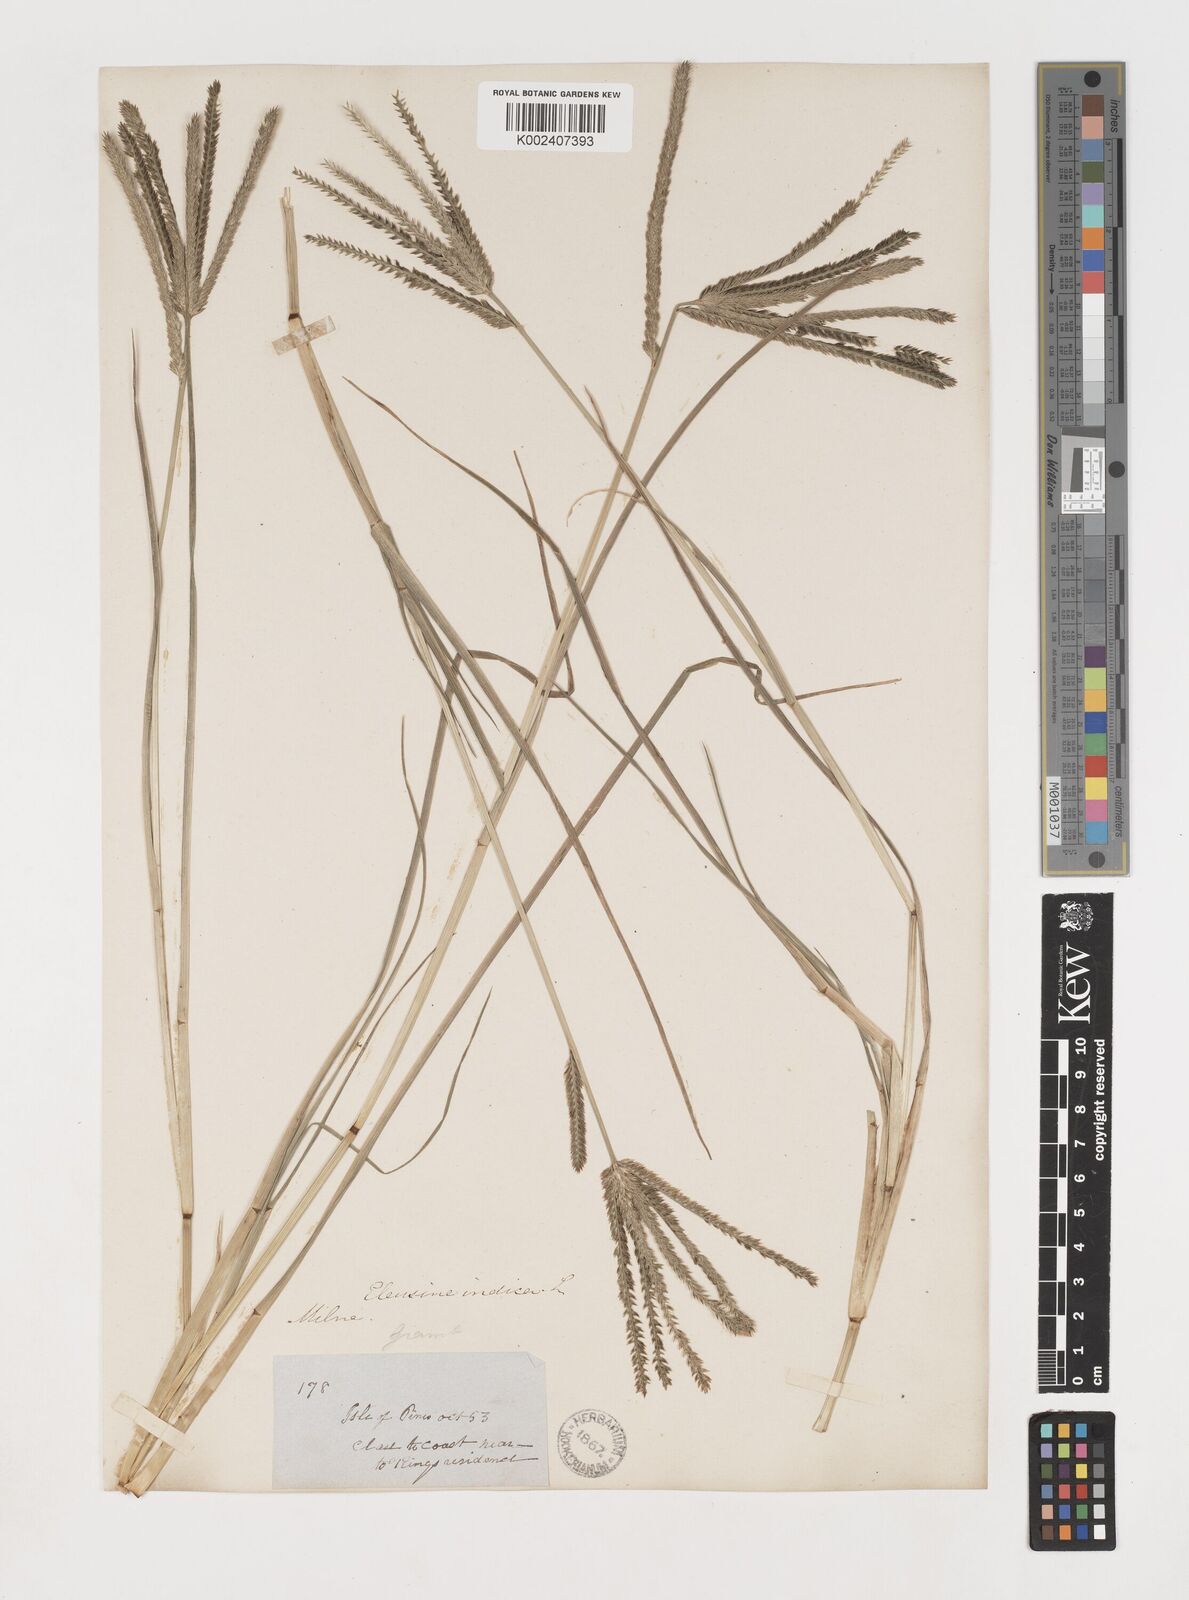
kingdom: Plantae
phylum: Tracheophyta
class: Liliopsida
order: Poales
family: Poaceae
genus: Eleusine
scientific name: Eleusine indica
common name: Yard-grass
